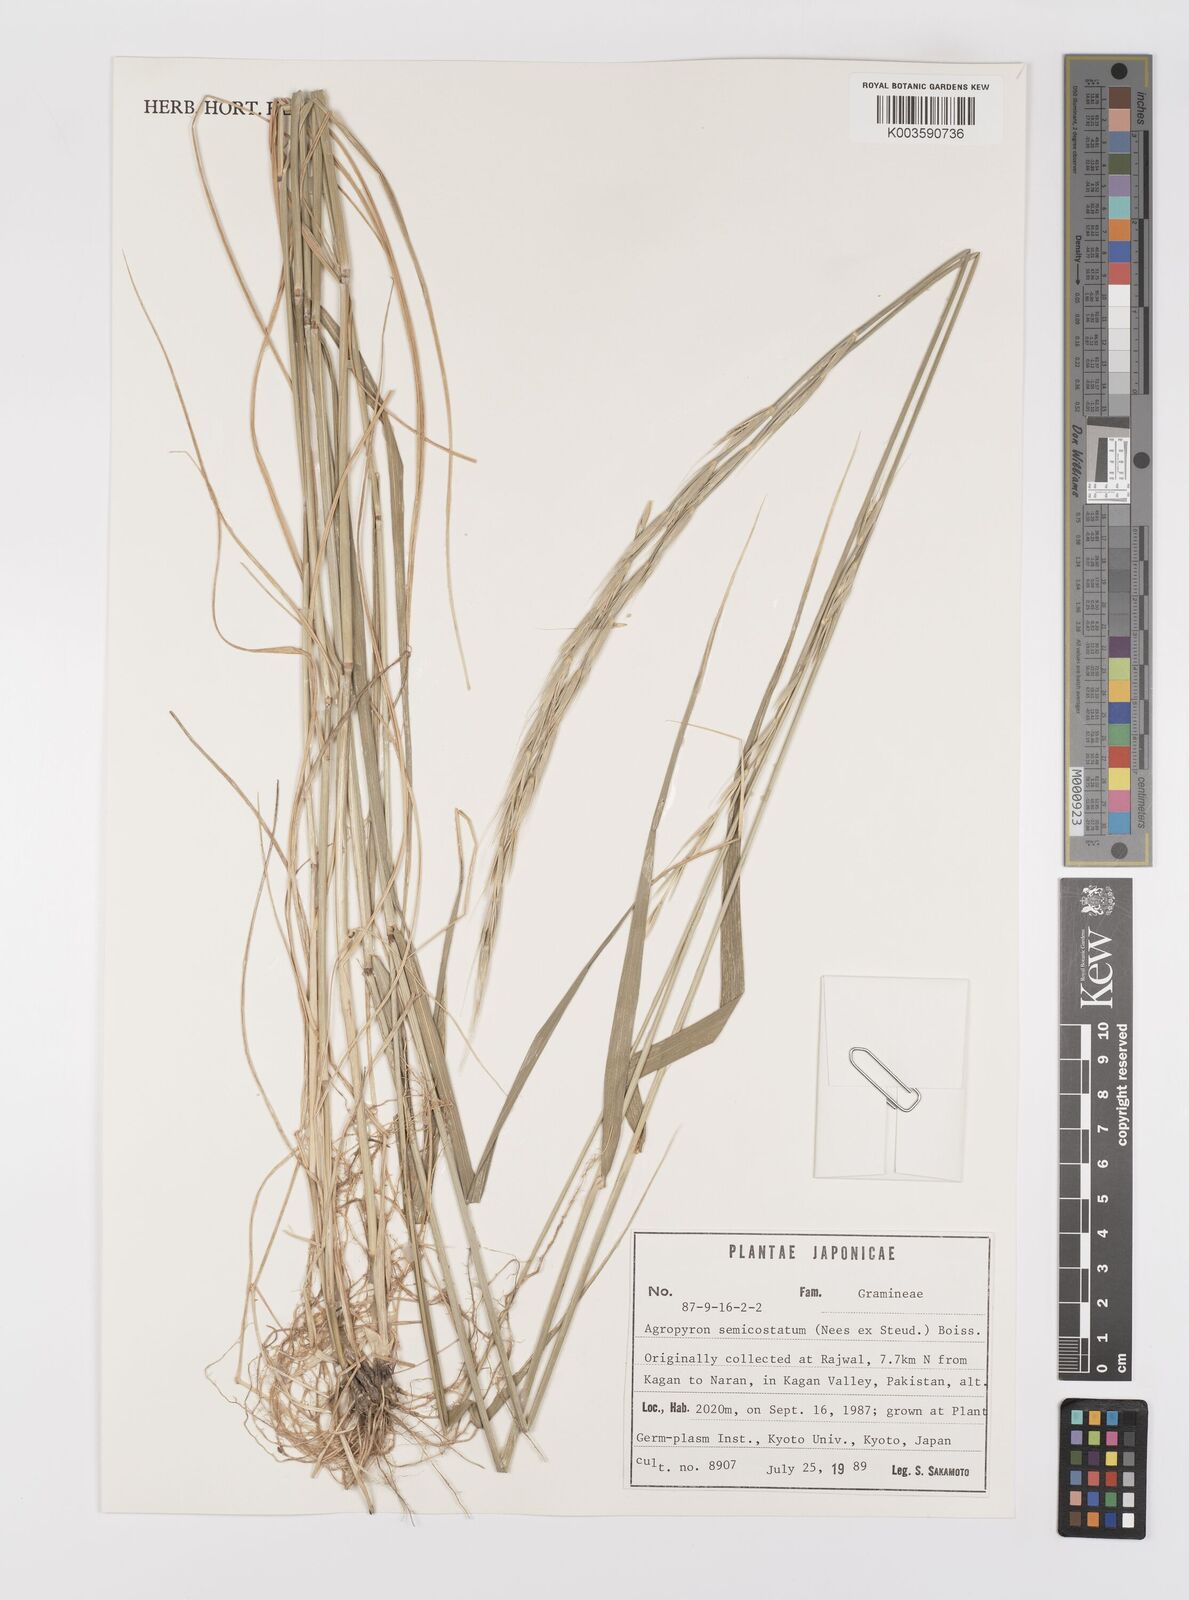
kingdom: Plantae
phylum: Tracheophyta
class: Liliopsida
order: Poales
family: Poaceae
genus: Elymus
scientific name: Elymus semicostatus
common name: Drooping wildrye
